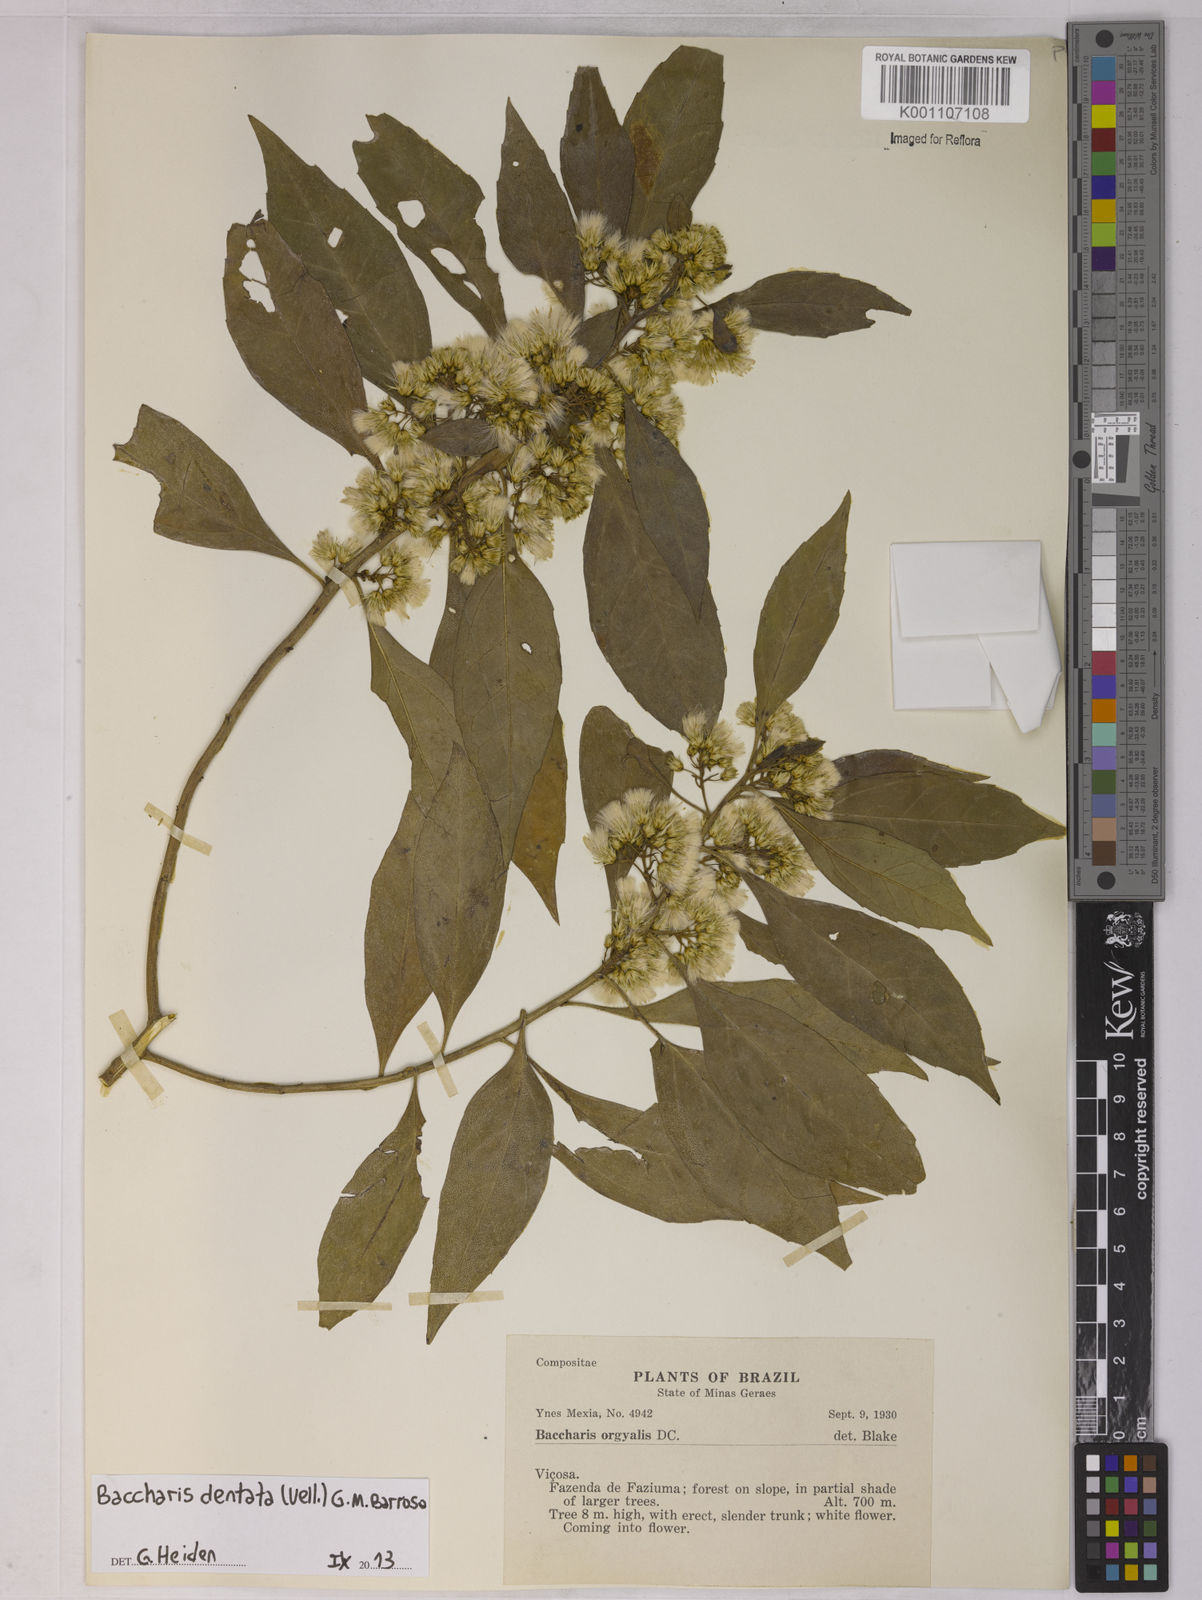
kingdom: Plantae
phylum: Tracheophyta
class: Magnoliopsida
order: Asterales
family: Asteraceae
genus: Baccharis
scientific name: Baccharis dentata
